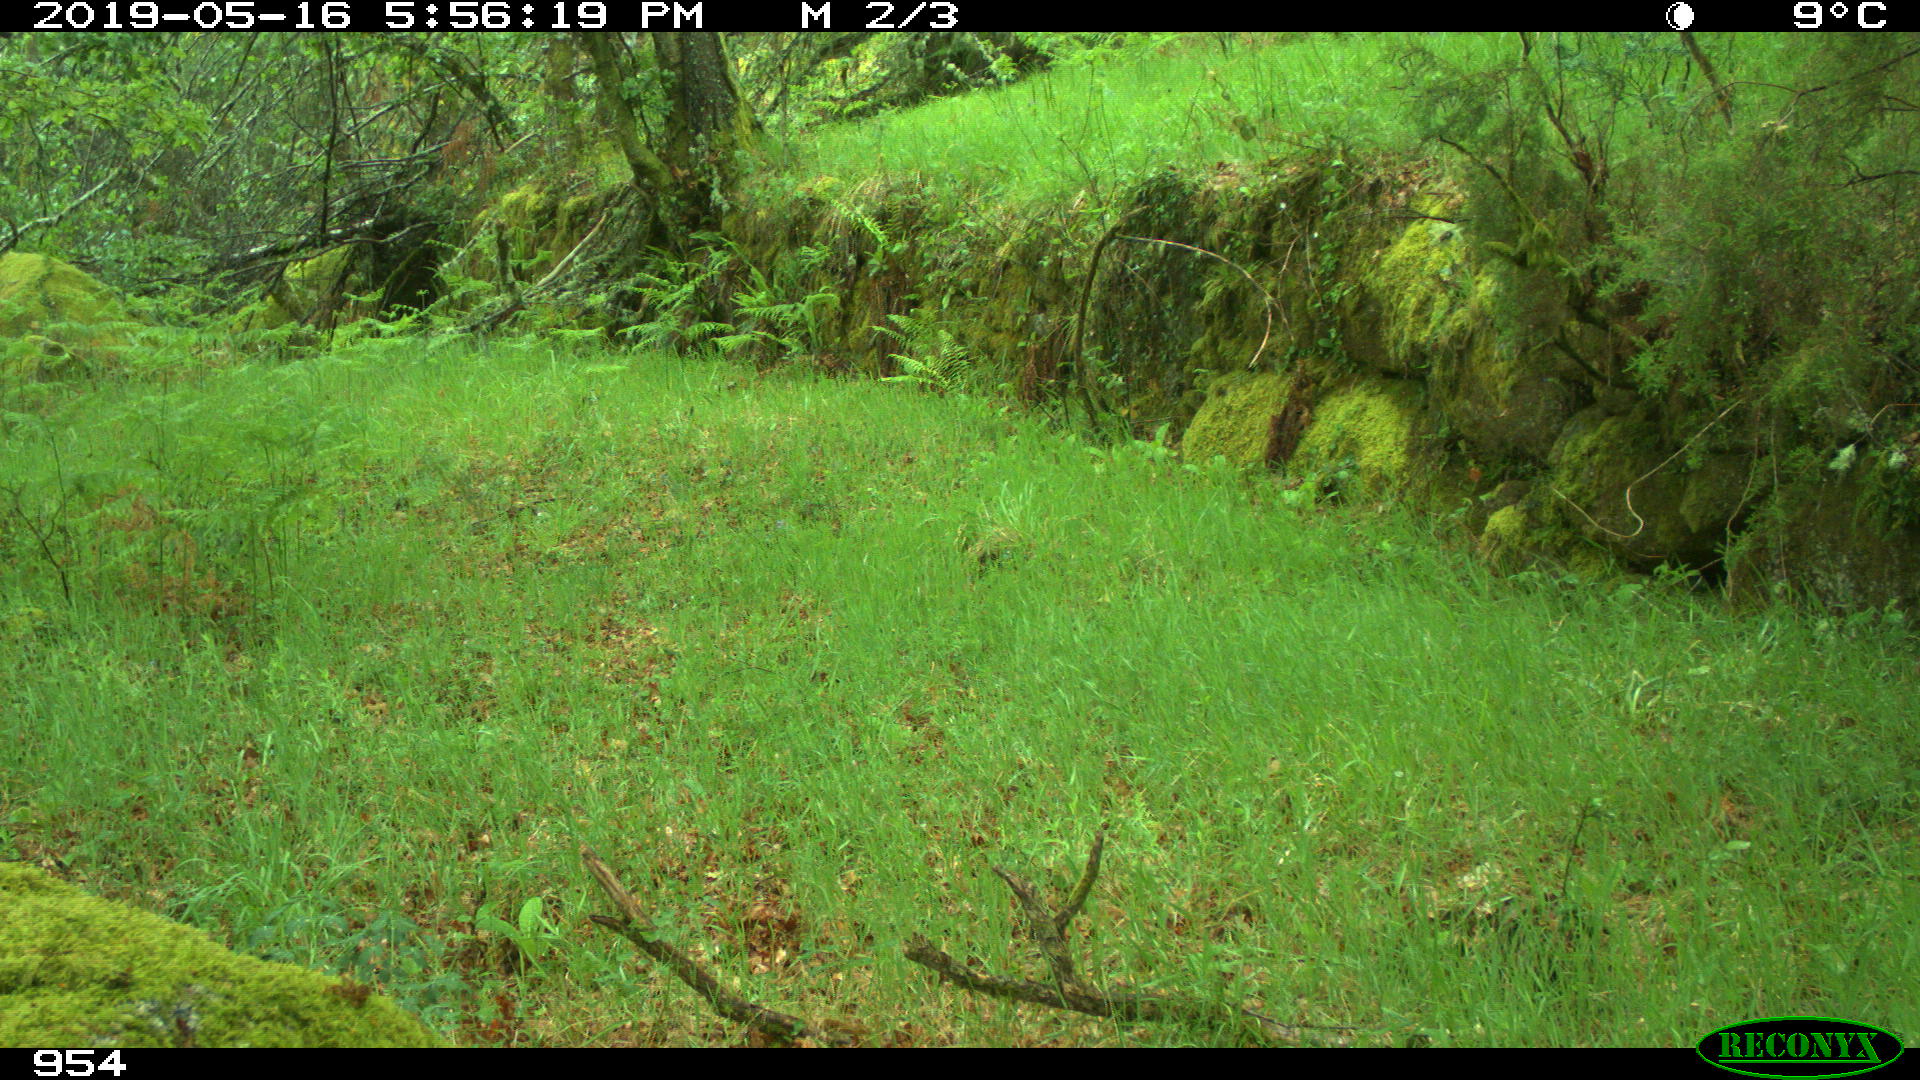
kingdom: Animalia
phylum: Chordata
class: Mammalia
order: Artiodactyla
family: Cervidae
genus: Capreolus
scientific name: Capreolus capreolus
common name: Western roe deer
